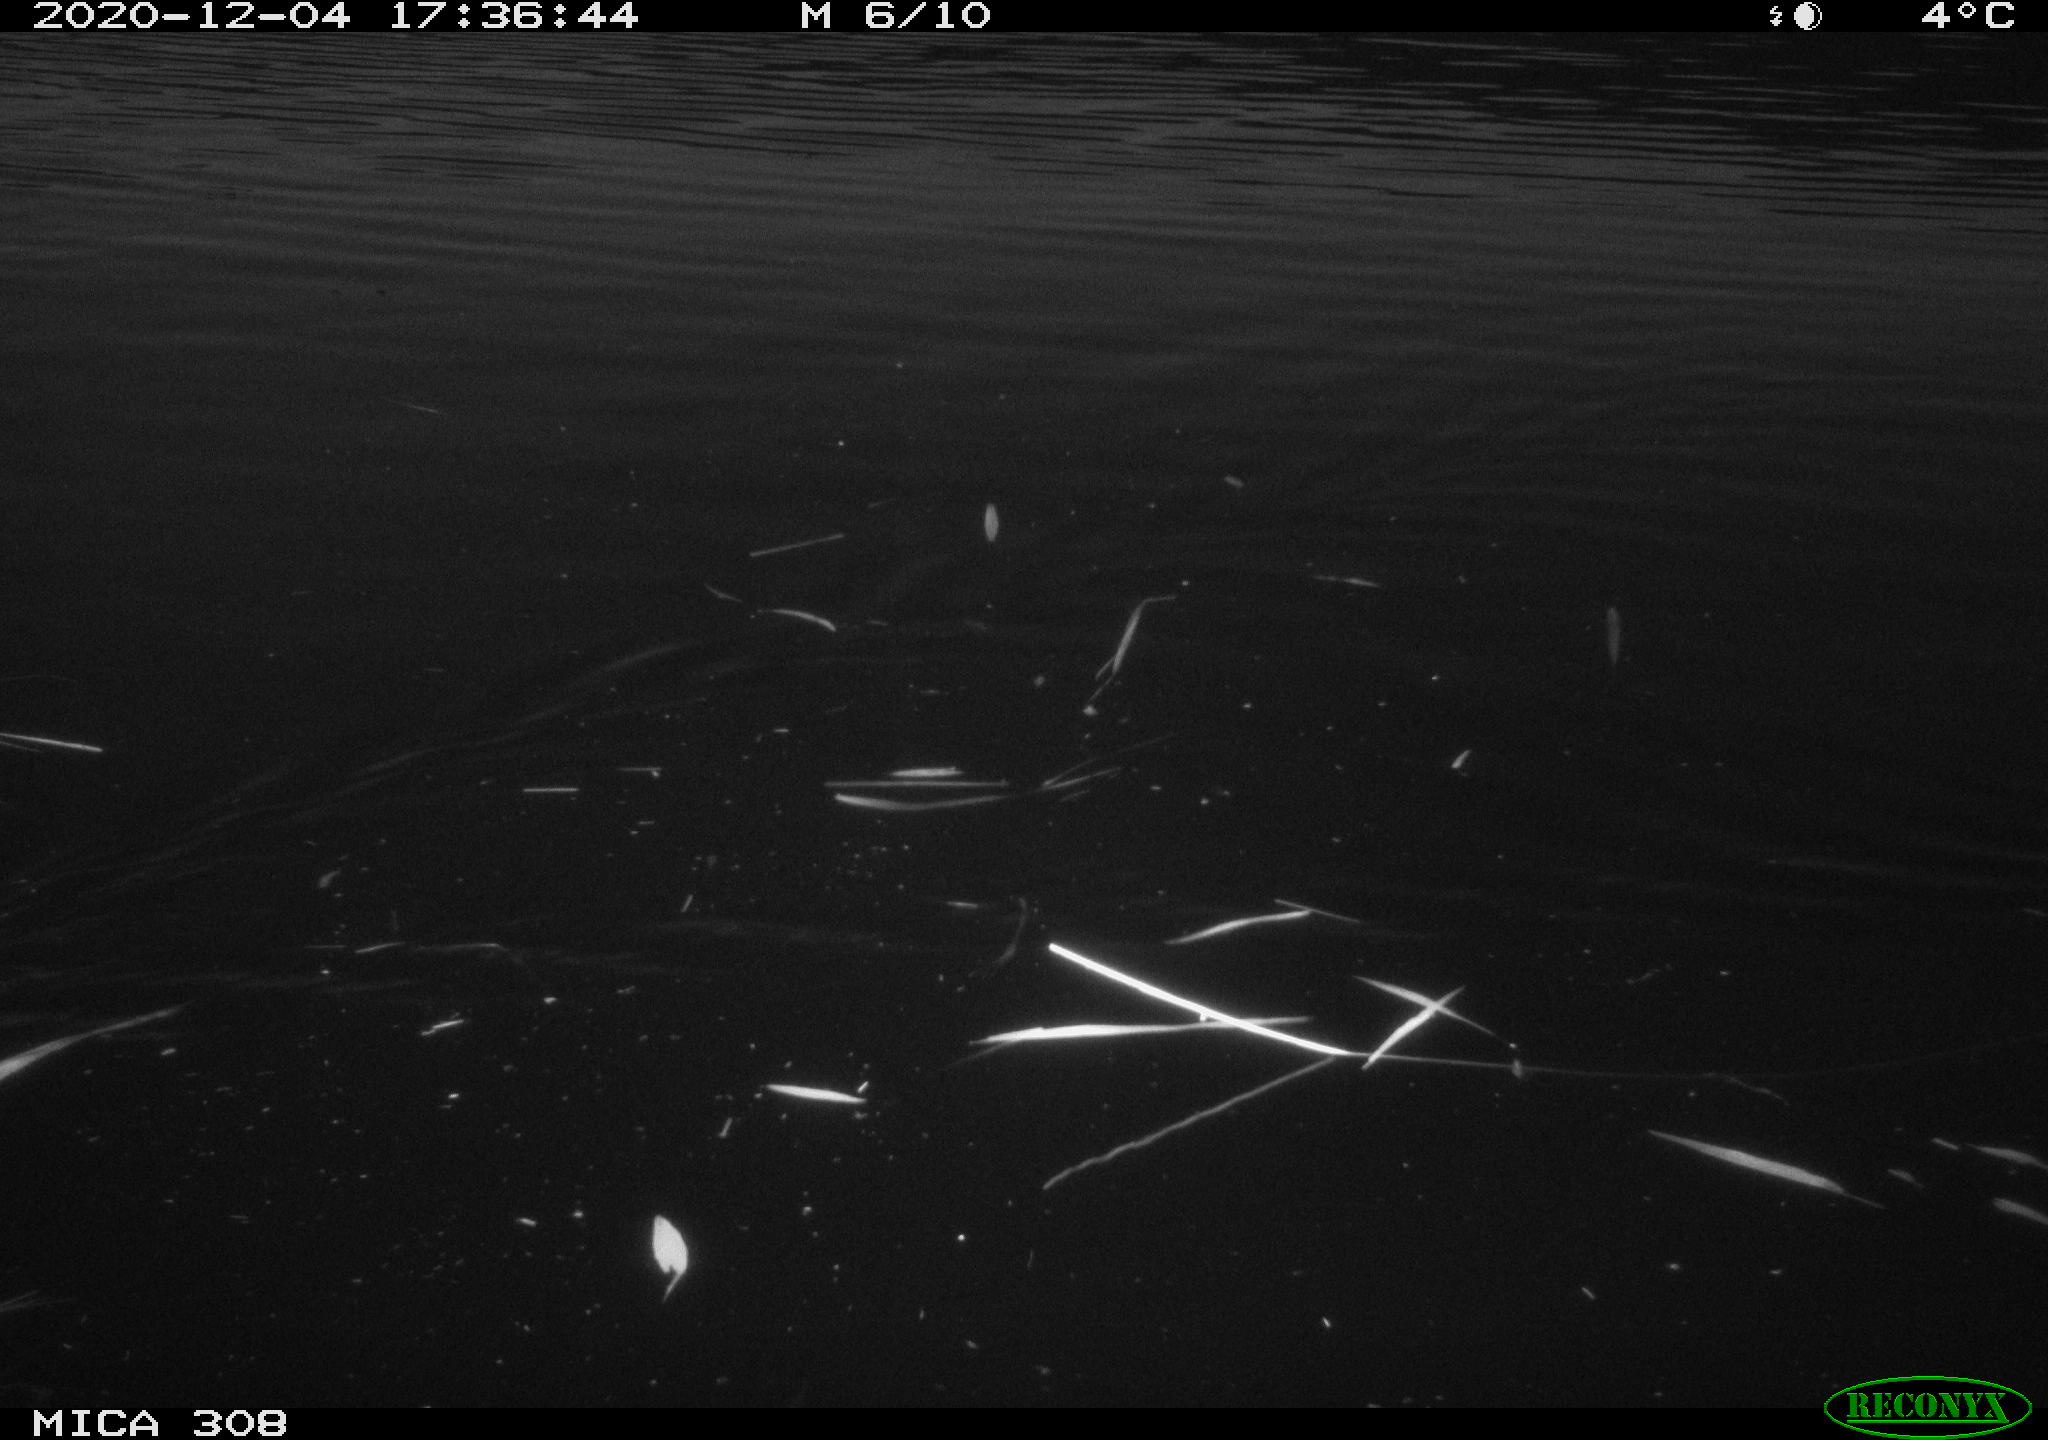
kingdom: Animalia
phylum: Chordata
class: Mammalia
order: Rodentia
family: Muridae
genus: Rattus
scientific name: Rattus norvegicus
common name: Brown rat
